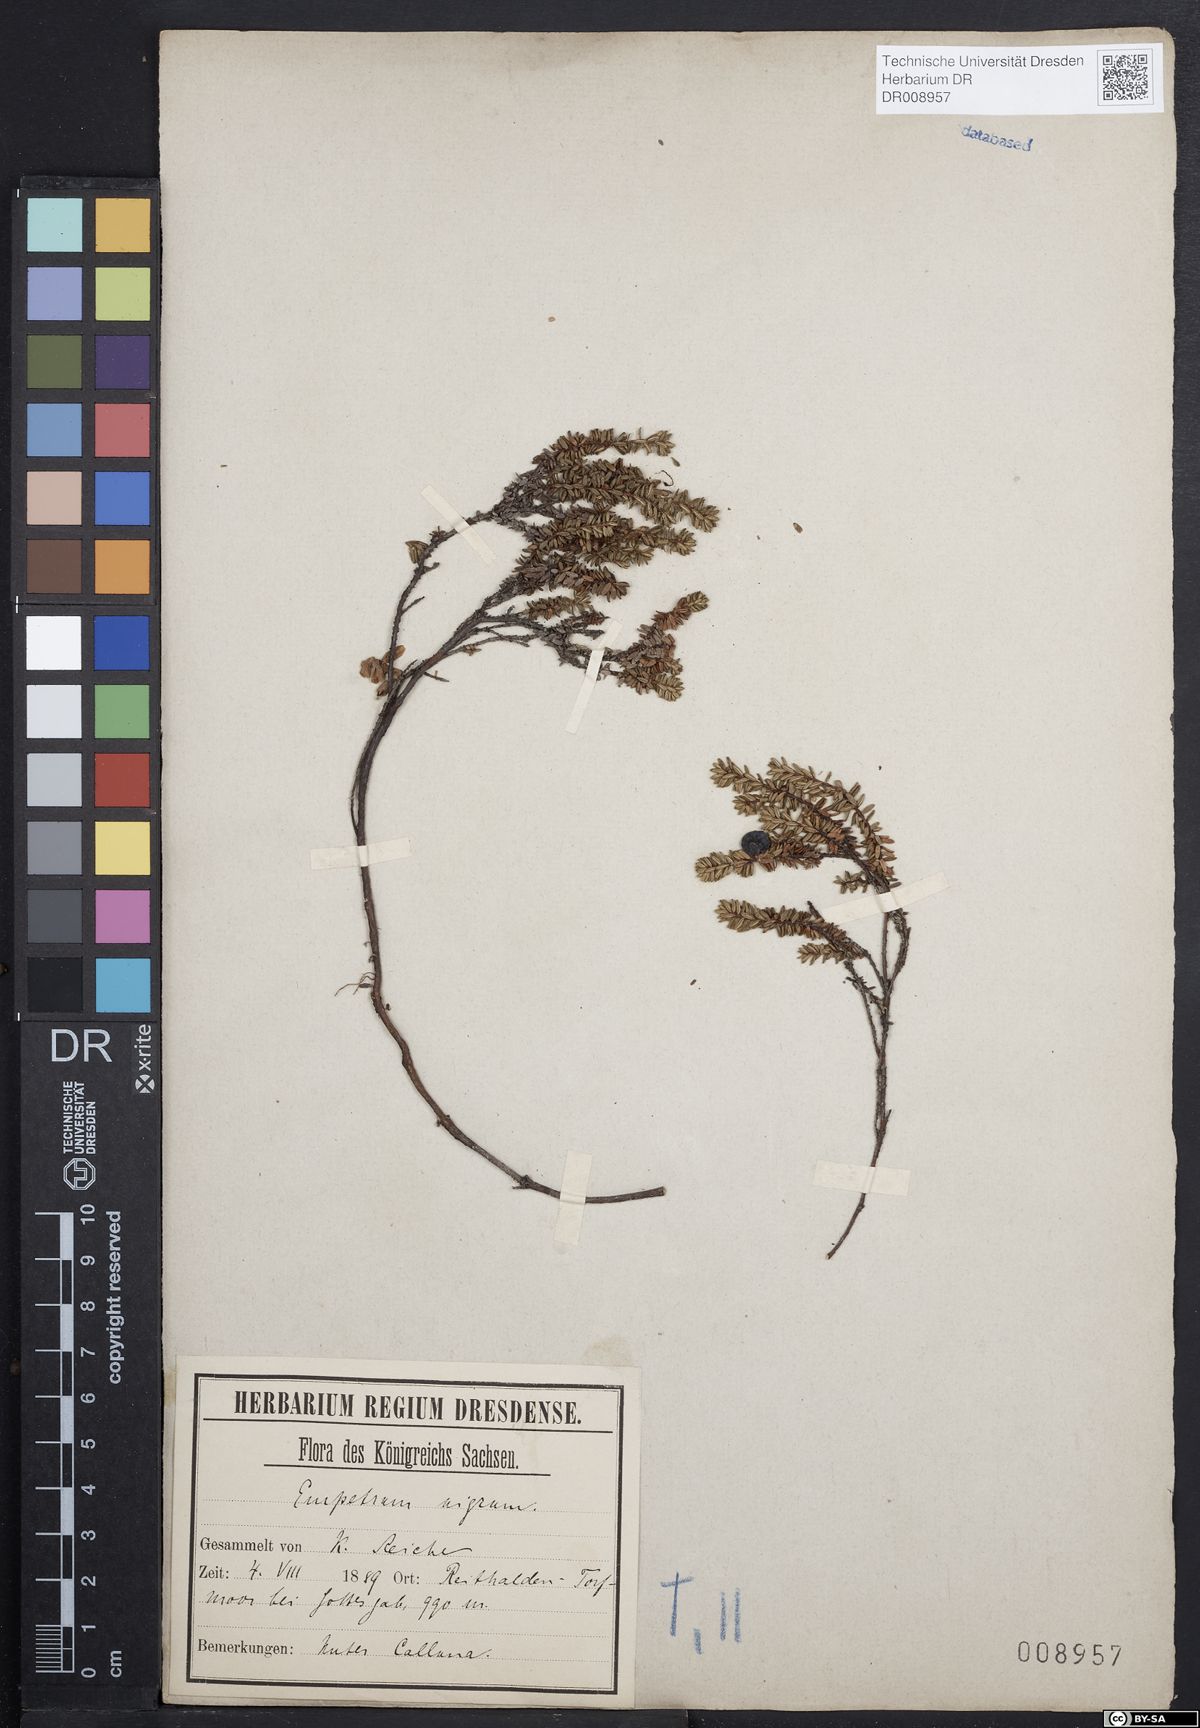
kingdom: Plantae
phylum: Tracheophyta
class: Magnoliopsida
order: Ericales
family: Ericaceae
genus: Empetrum
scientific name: Empetrum nigrum
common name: Black crowberry
